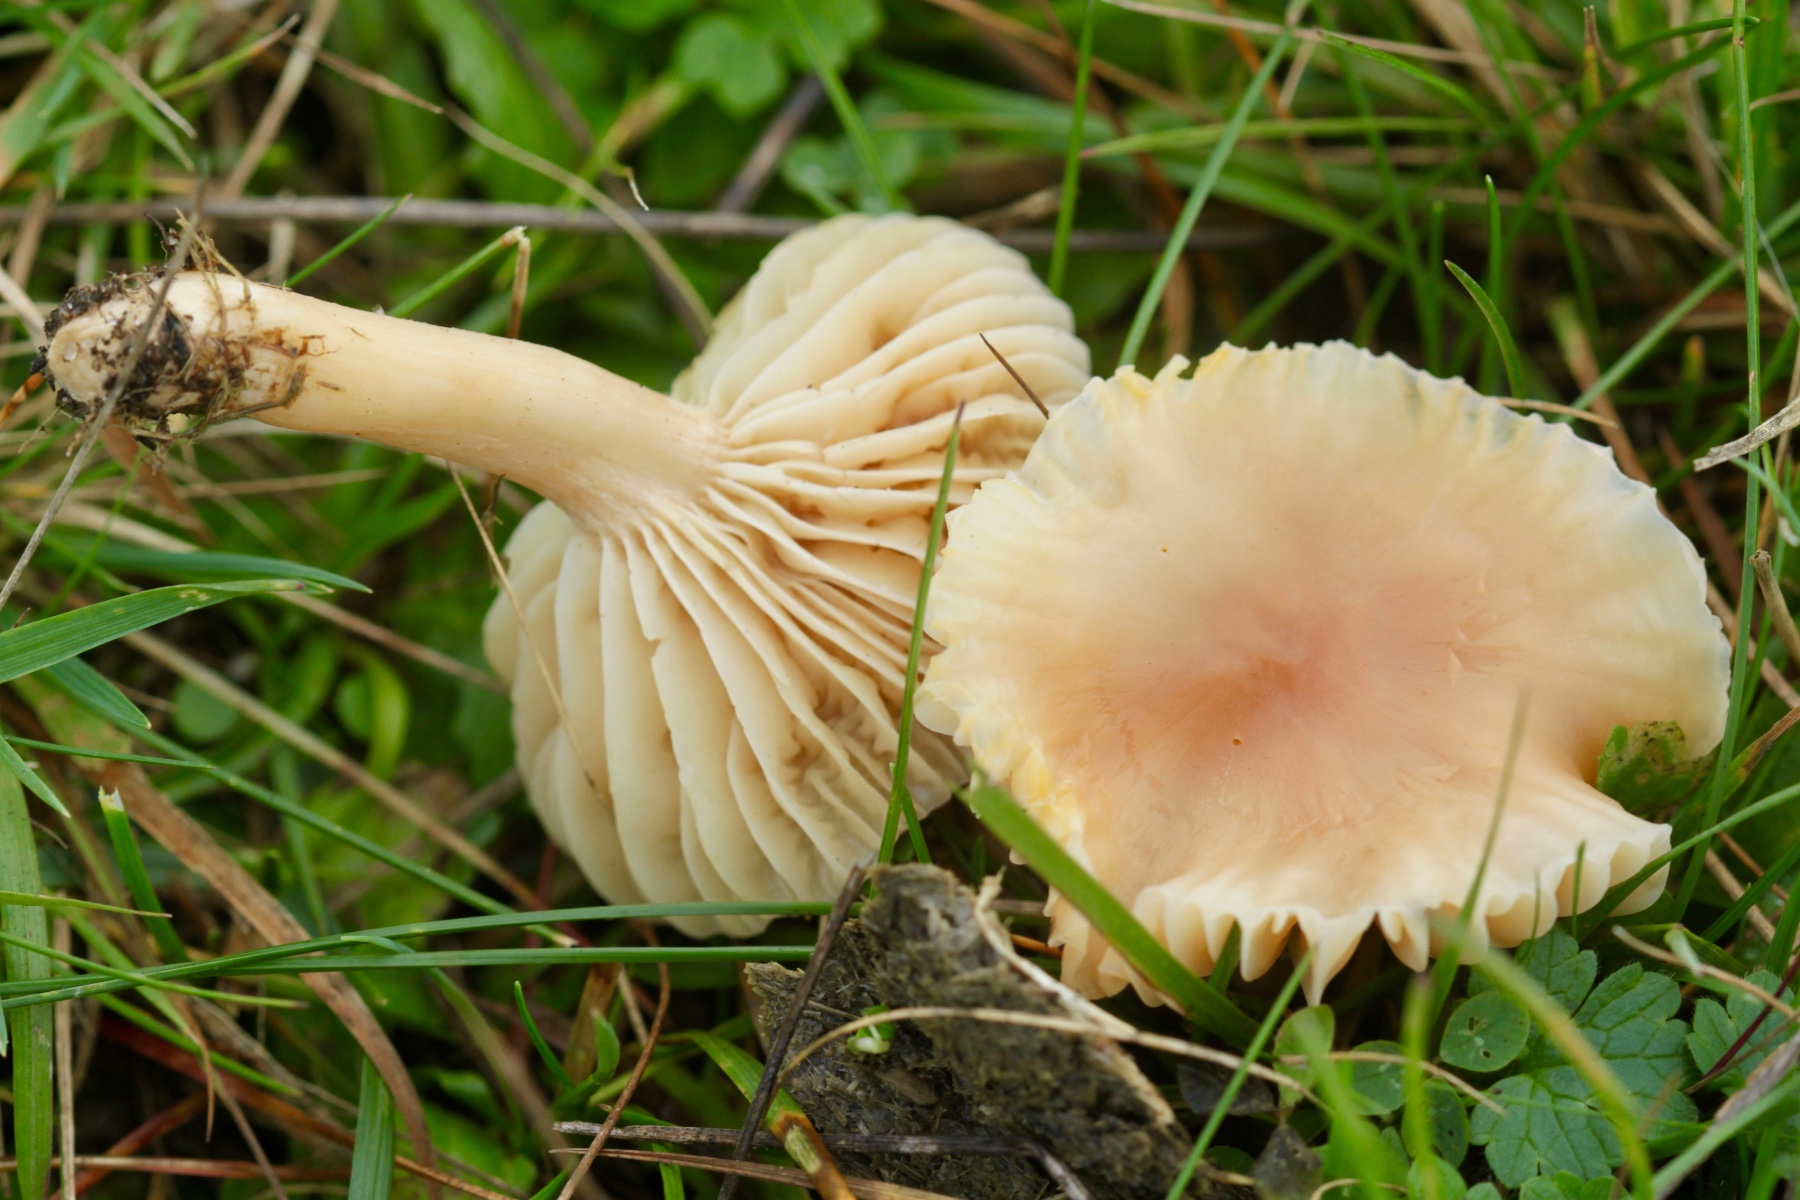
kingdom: Fungi
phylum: Basidiomycota
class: Agaricomycetes
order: Agaricales
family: Hygrophoraceae
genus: Cuphophyllus
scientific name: Cuphophyllus pratensis
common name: eng-vokshat
